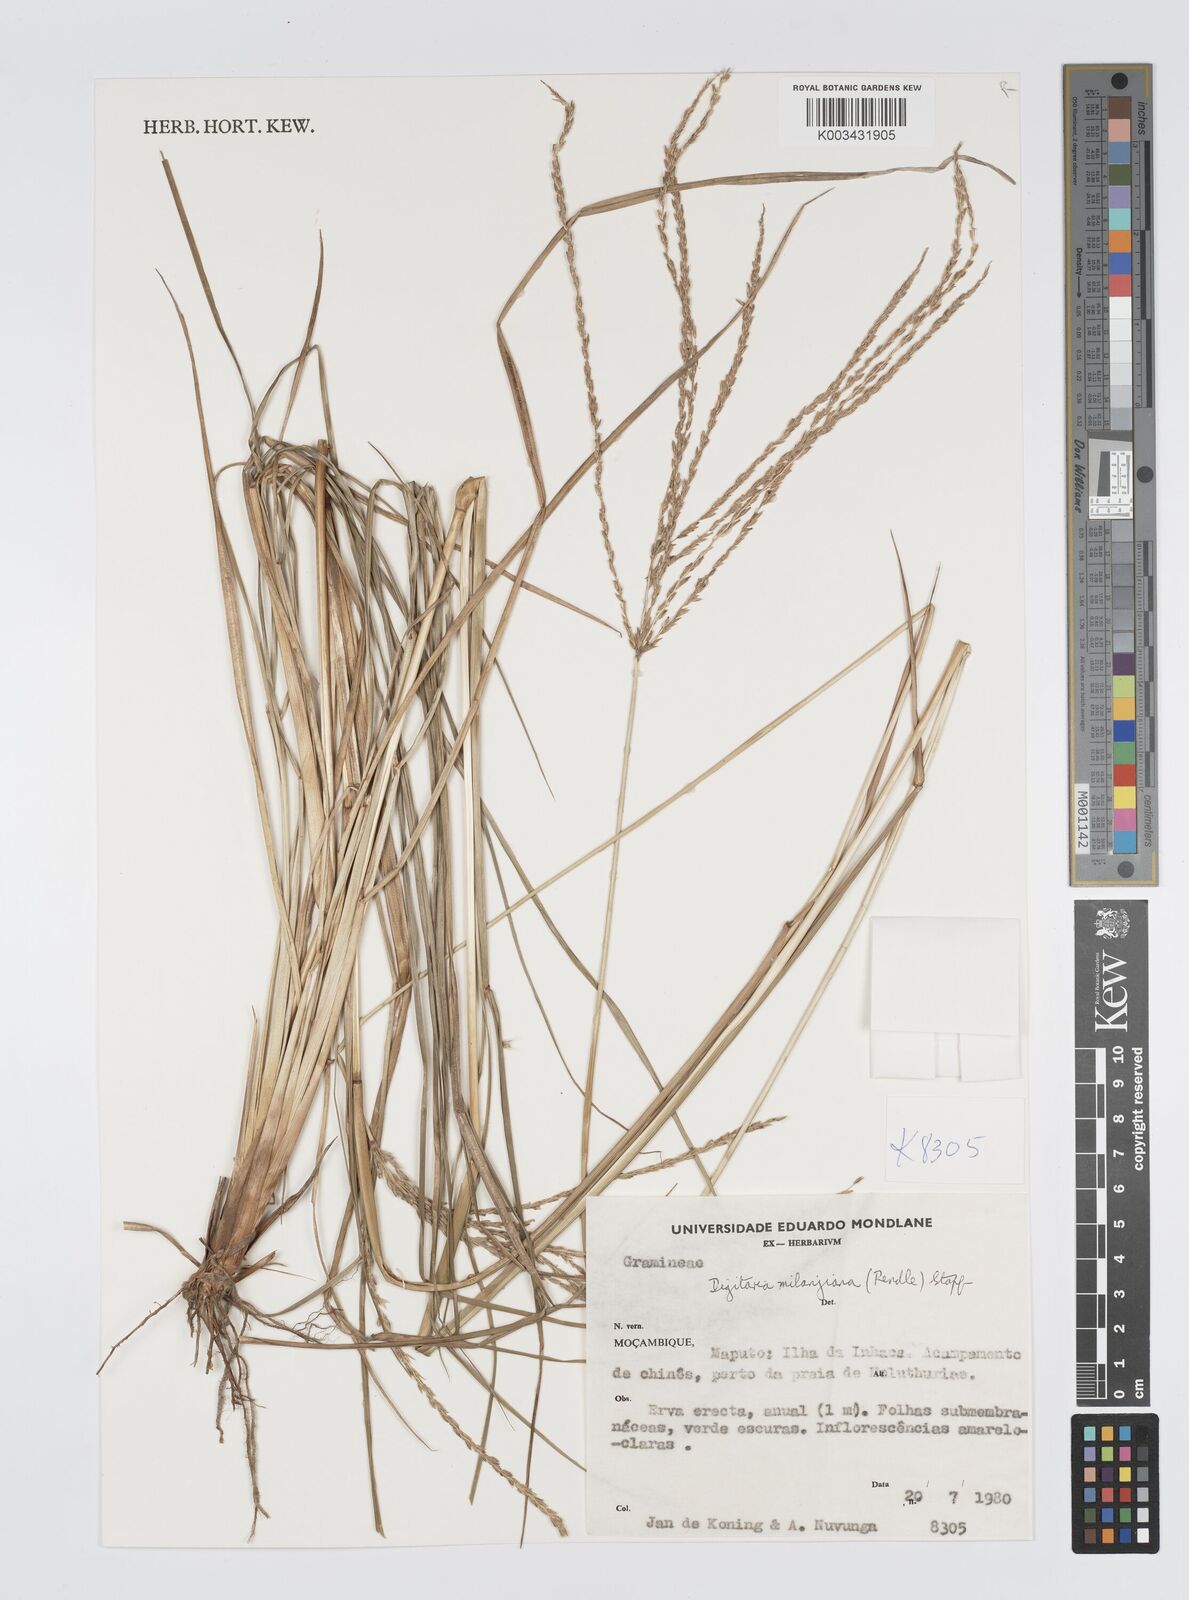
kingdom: Plantae
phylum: Tracheophyta
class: Liliopsida
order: Poales
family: Poaceae
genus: Digitaria
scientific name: Digitaria milanjiana
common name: Madagascar crabgrass
